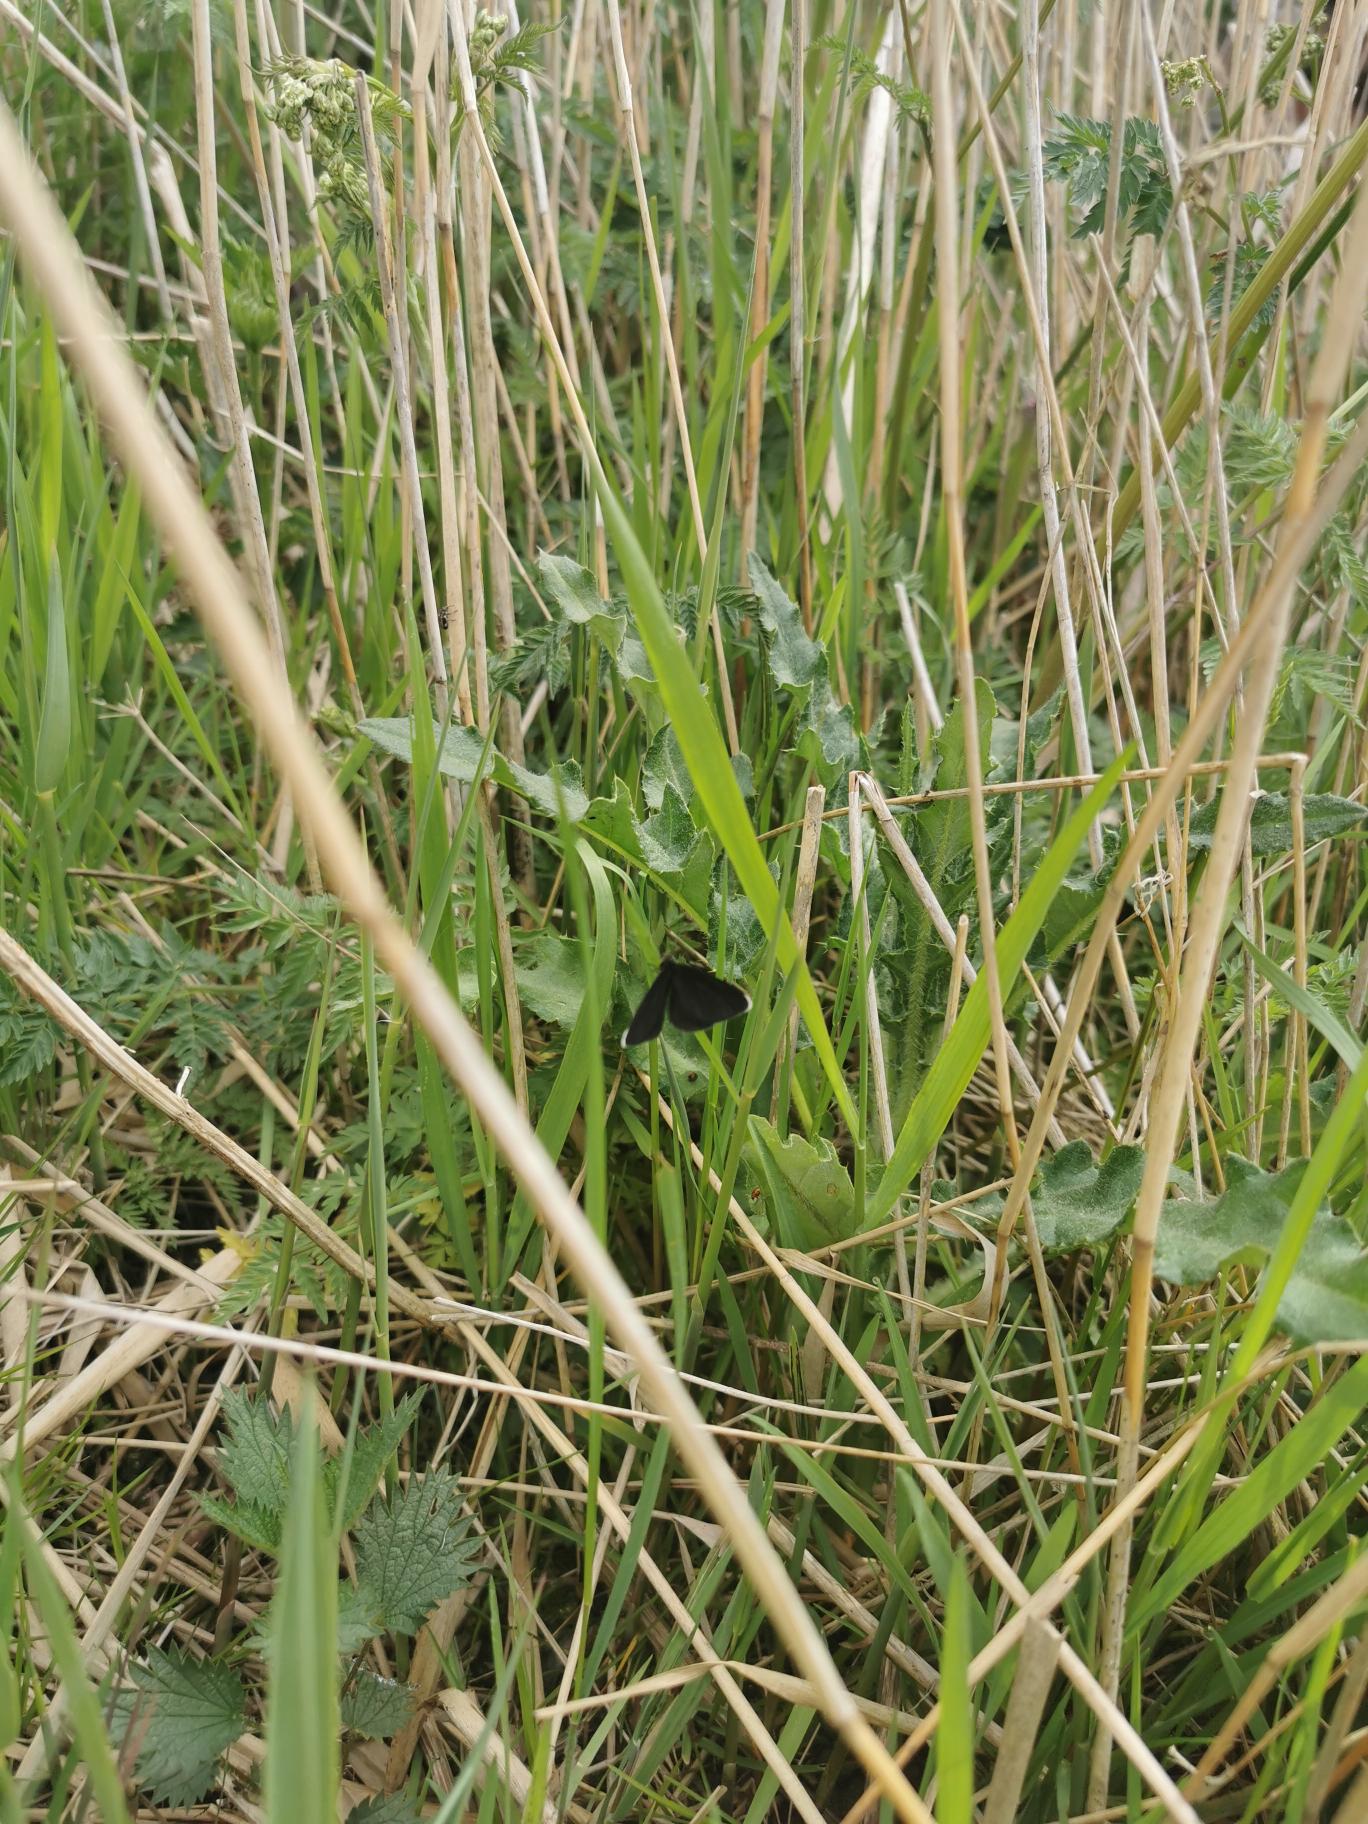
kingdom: Animalia
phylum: Arthropoda
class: Insecta
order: Lepidoptera
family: Geometridae
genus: Odezia
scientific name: Odezia atrata
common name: Sort måler
